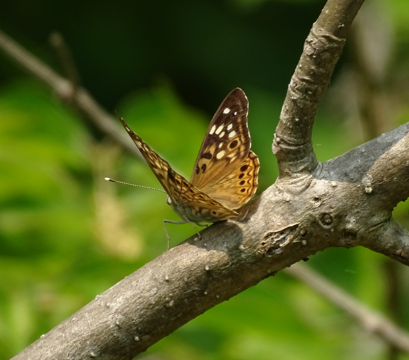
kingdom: Animalia
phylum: Arthropoda
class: Insecta
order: Lepidoptera
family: Nymphalidae
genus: Asterocampa
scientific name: Asterocampa celtis
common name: Hackberry Emperor
